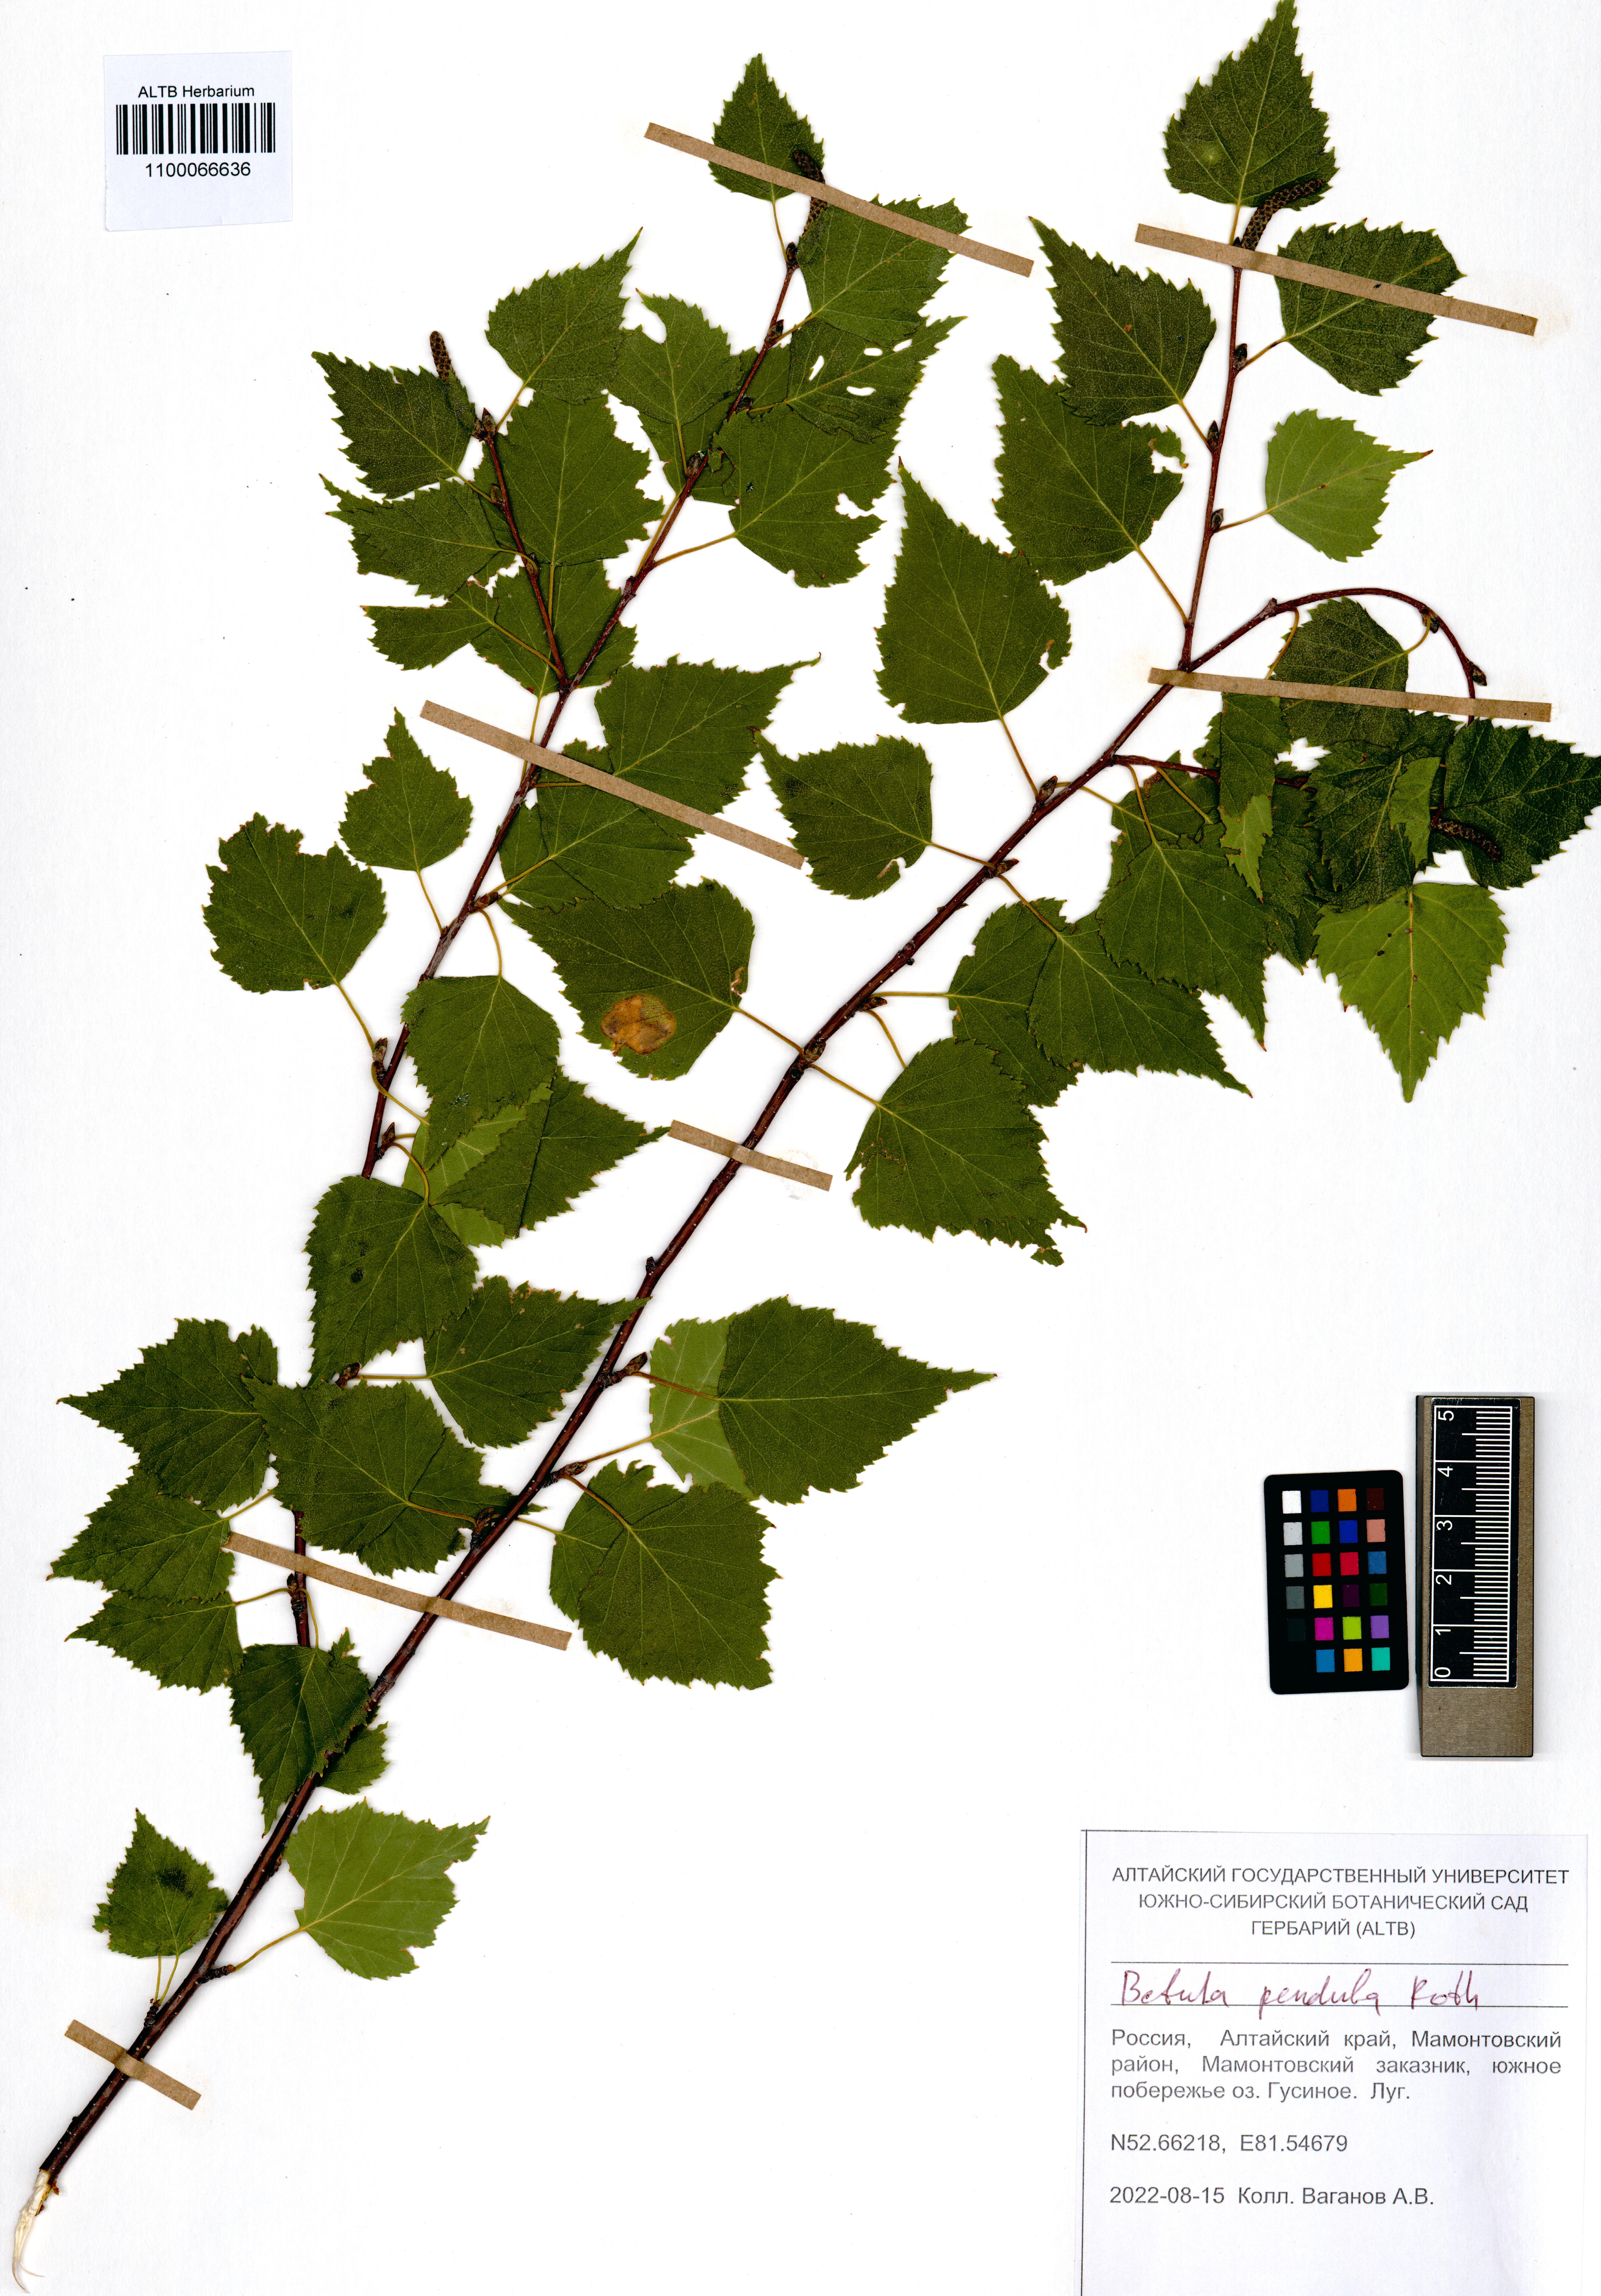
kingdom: Plantae
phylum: Tracheophyta
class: Magnoliopsida
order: Fagales
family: Betulaceae
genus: Betula
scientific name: Betula pendula
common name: Silver birch
